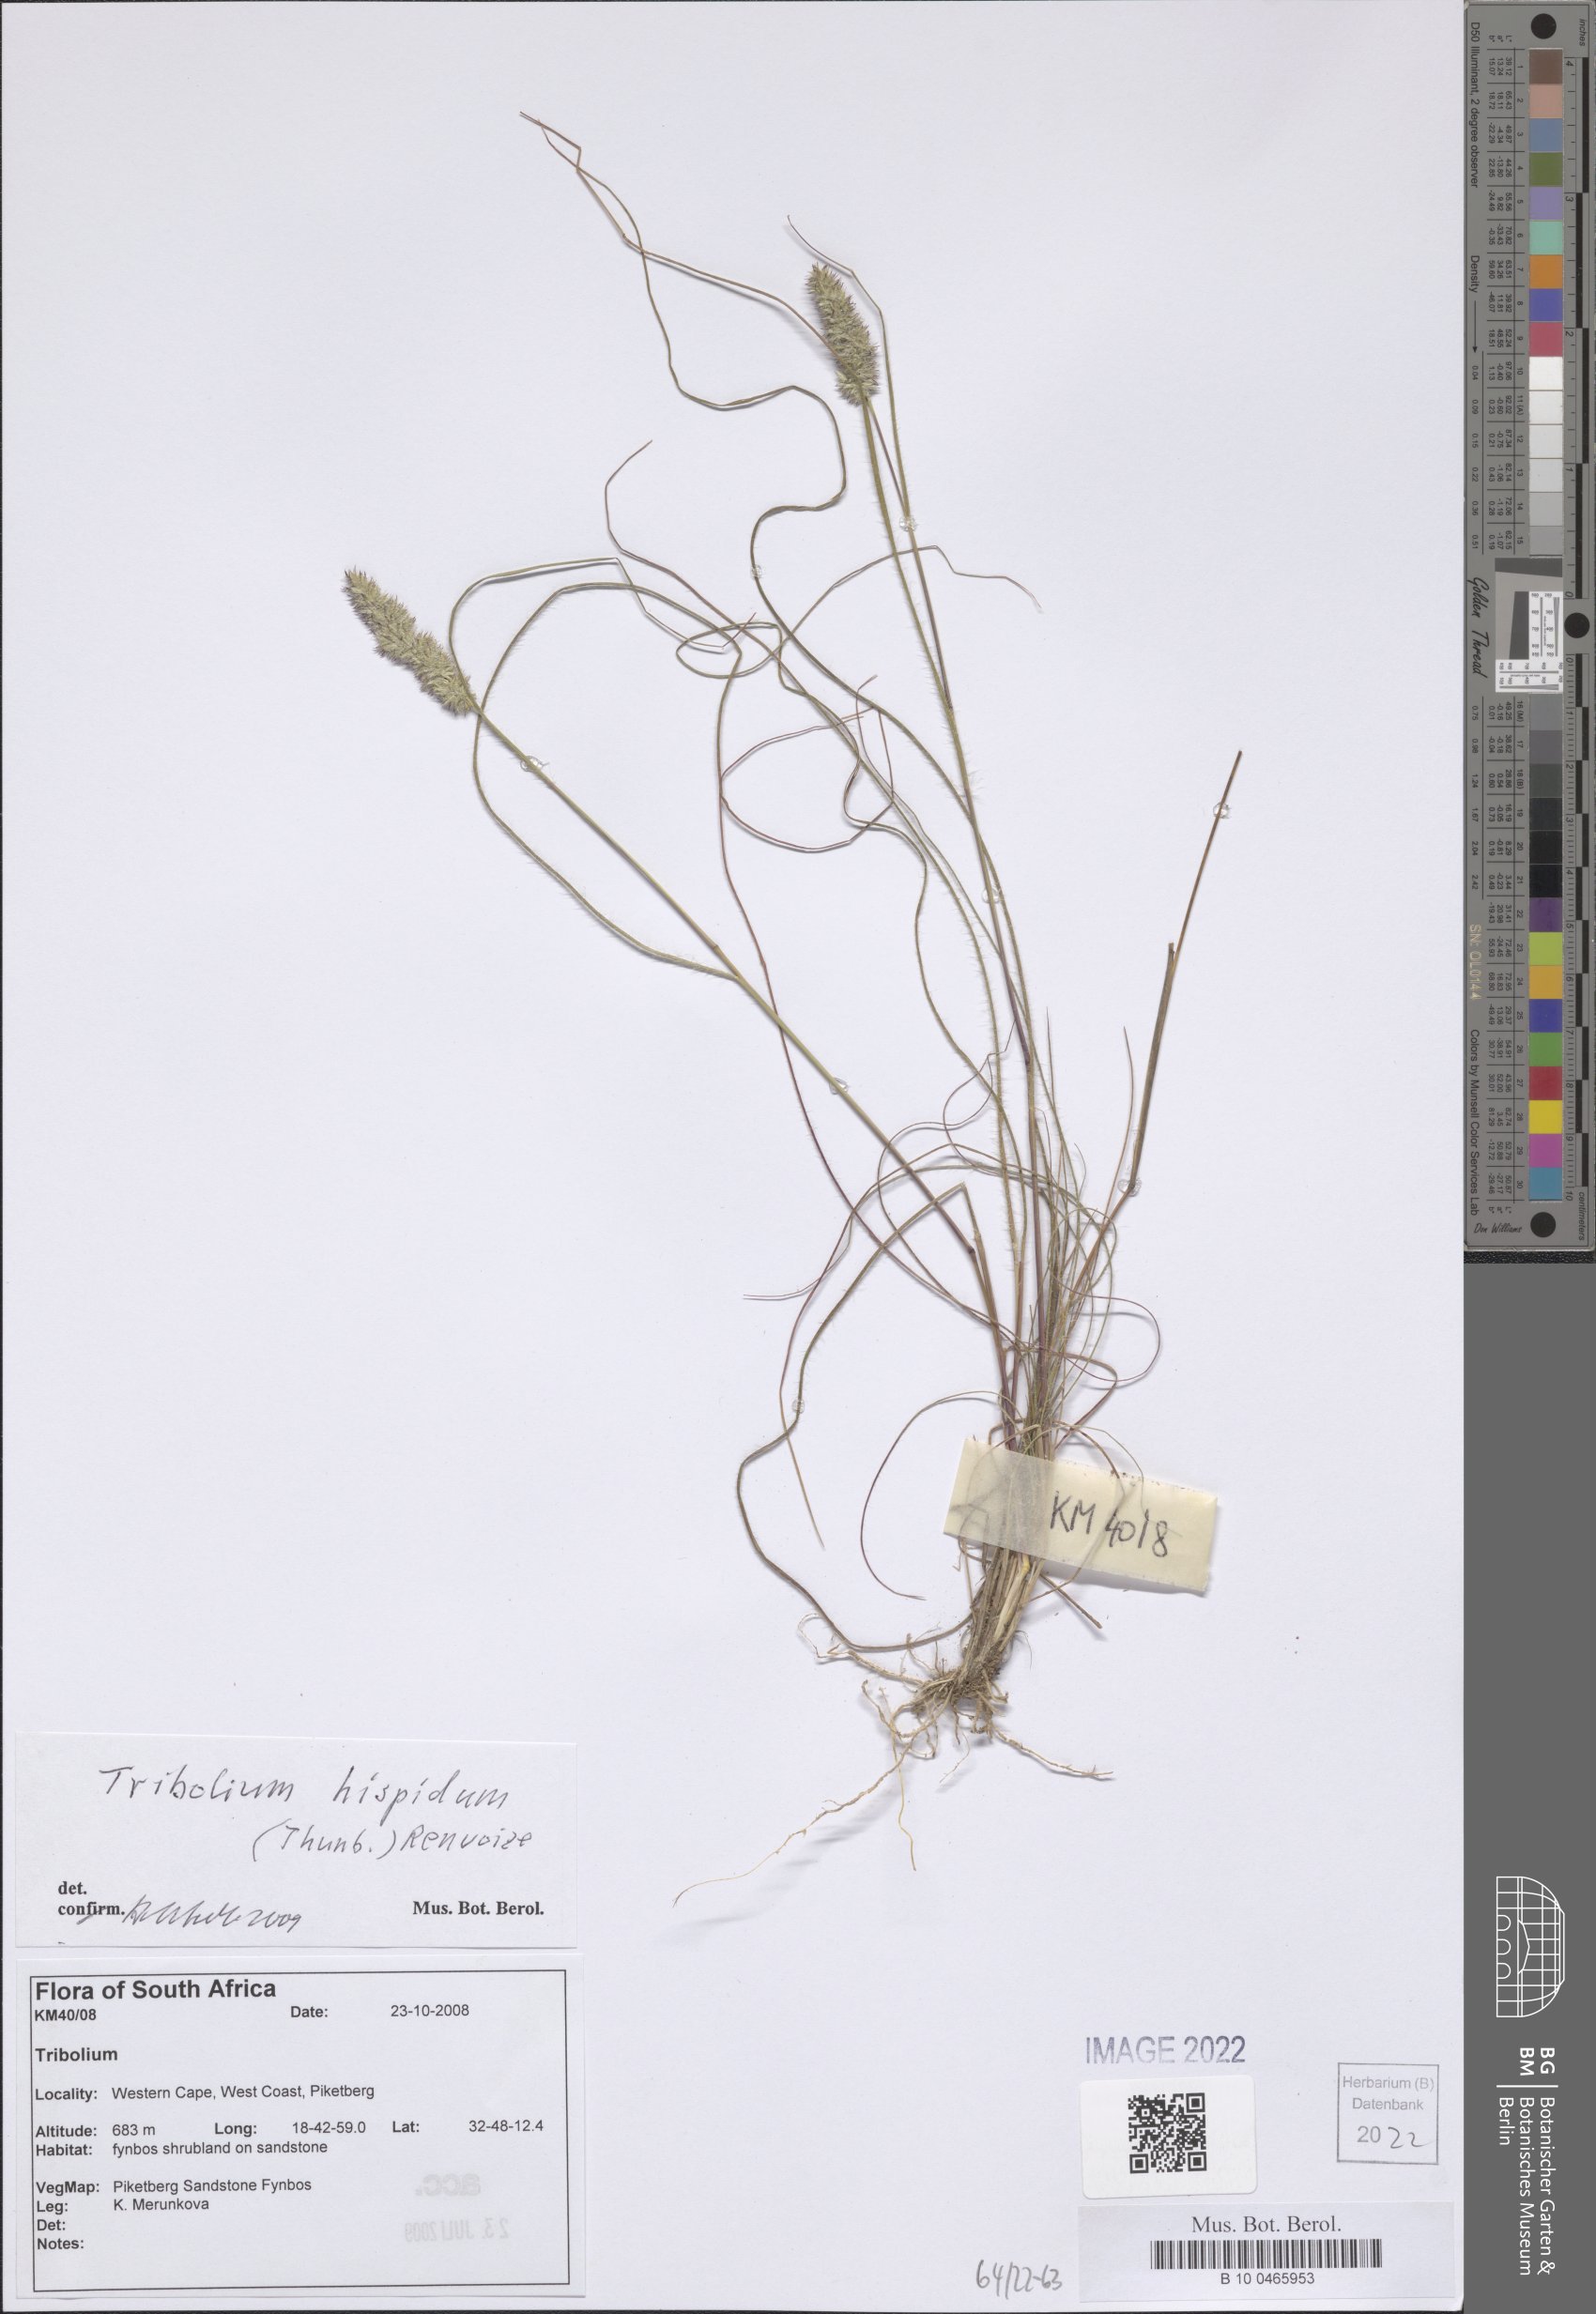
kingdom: Plantae
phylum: Tracheophyta
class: Liliopsida
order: Poales
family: Poaceae
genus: Tribolium
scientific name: Tribolium hispidum
